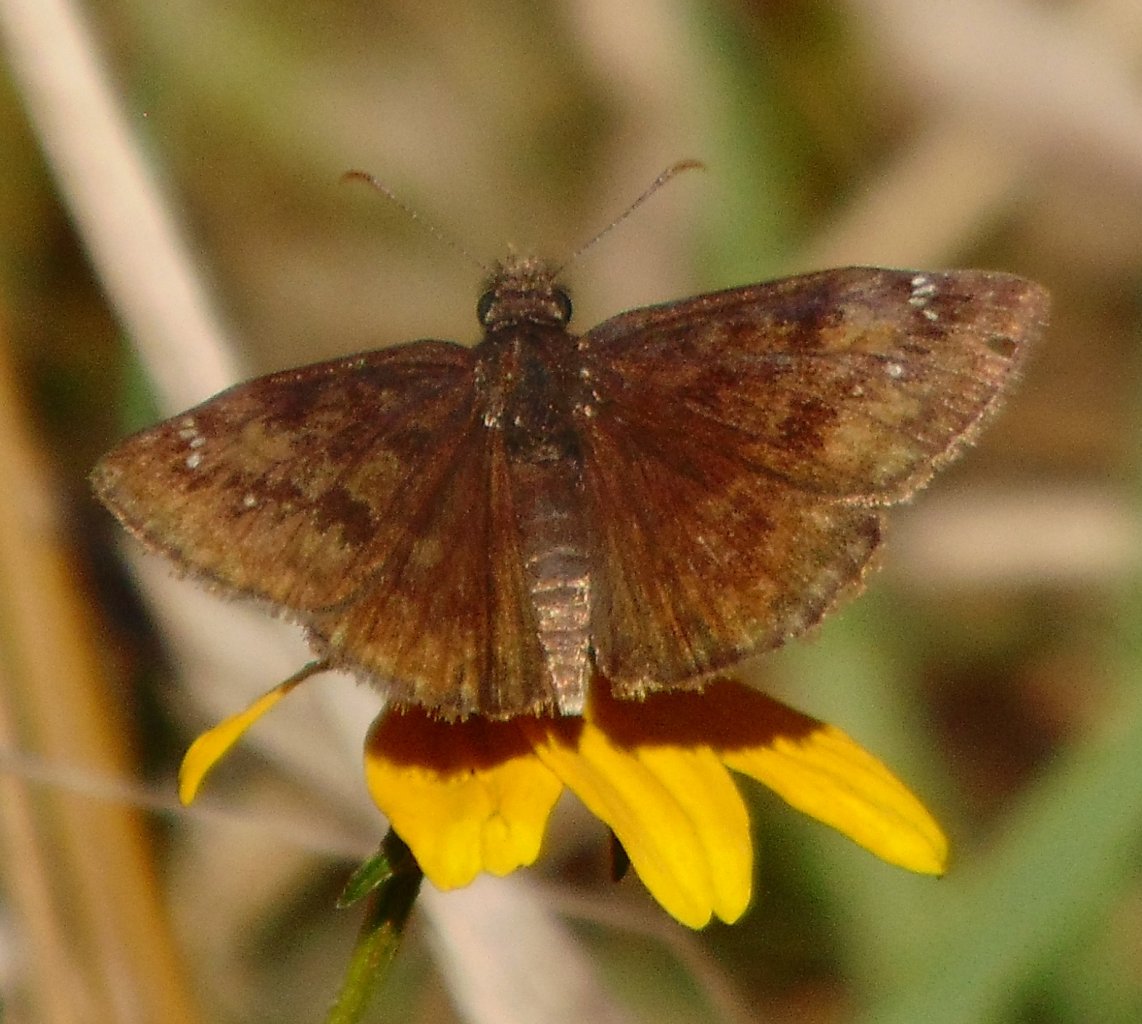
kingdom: Animalia
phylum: Arthropoda
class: Insecta
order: Lepidoptera
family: Hesperiidae
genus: Gesta
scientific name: Gesta
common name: Wild Indigo Duskywing
